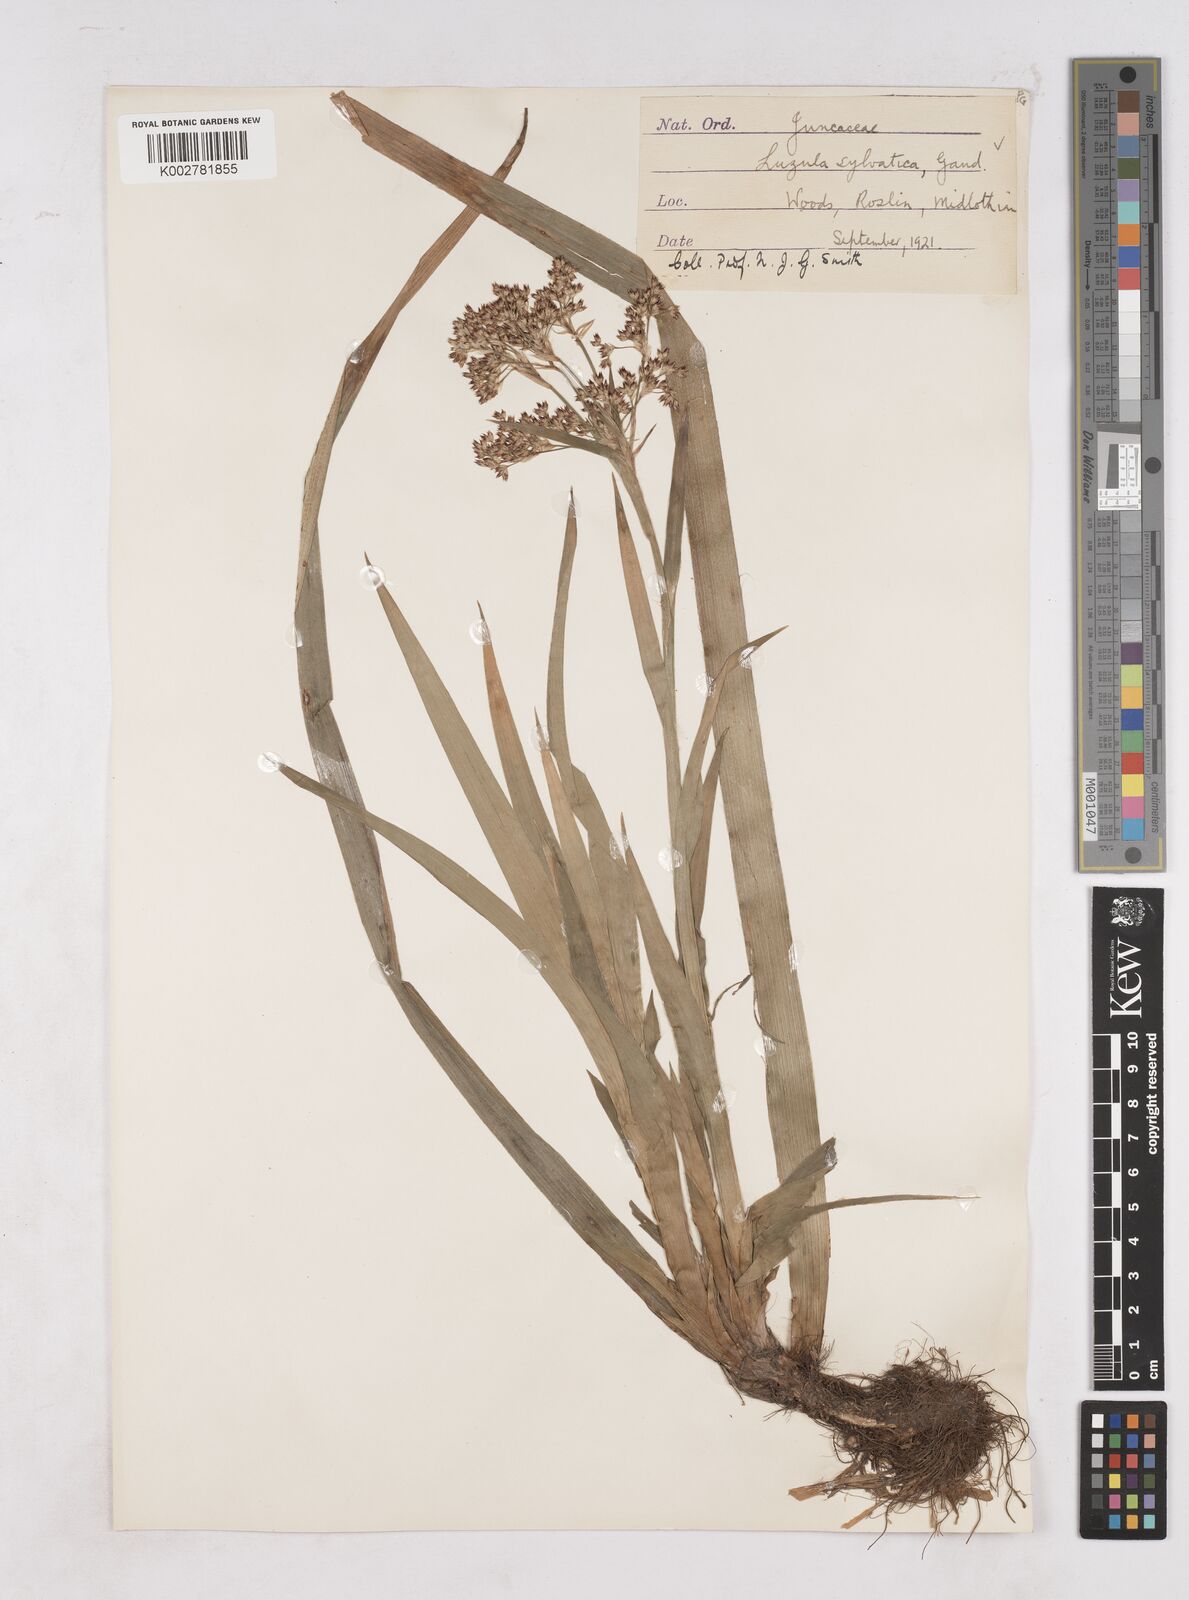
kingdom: Plantae
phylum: Tracheophyta
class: Liliopsida
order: Poales
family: Juncaceae
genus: Luzula
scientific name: Luzula sylvatica
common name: Great wood-rush
